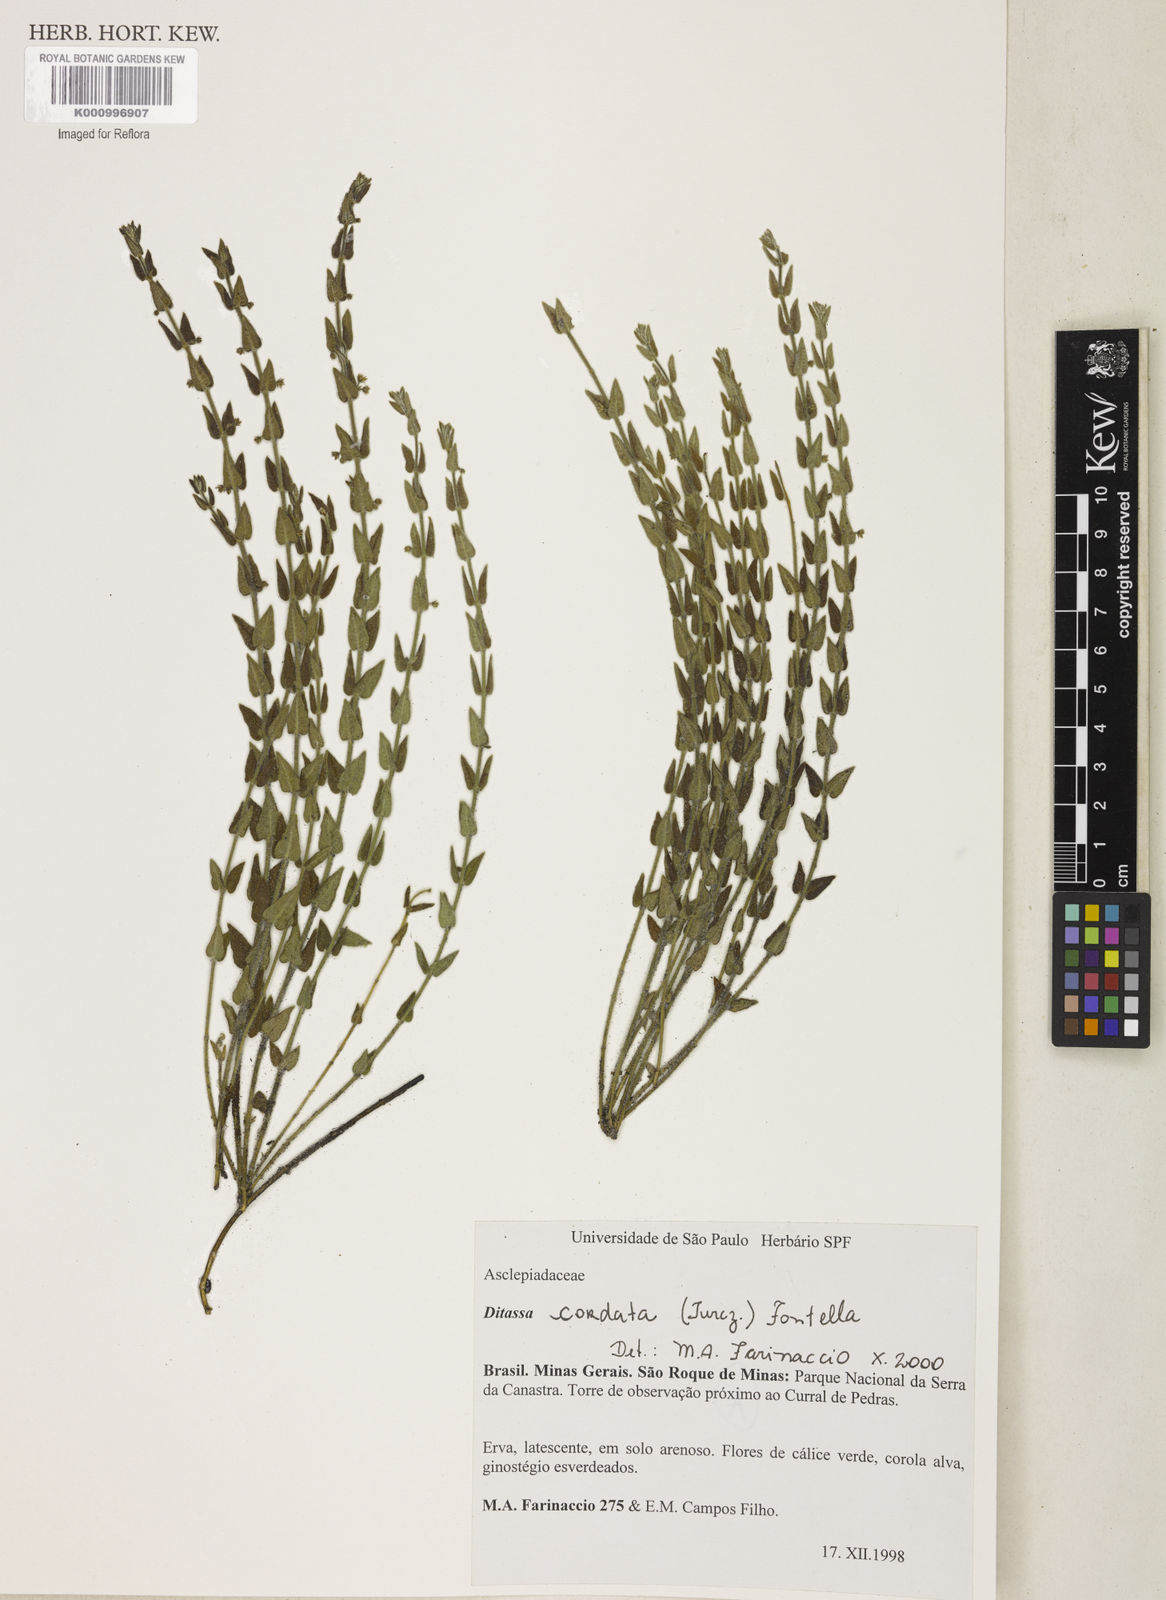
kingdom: Plantae
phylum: Tracheophyta
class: Magnoliopsida
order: Gentianales
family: Apocynaceae
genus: Minaria
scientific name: Minaria cordata
